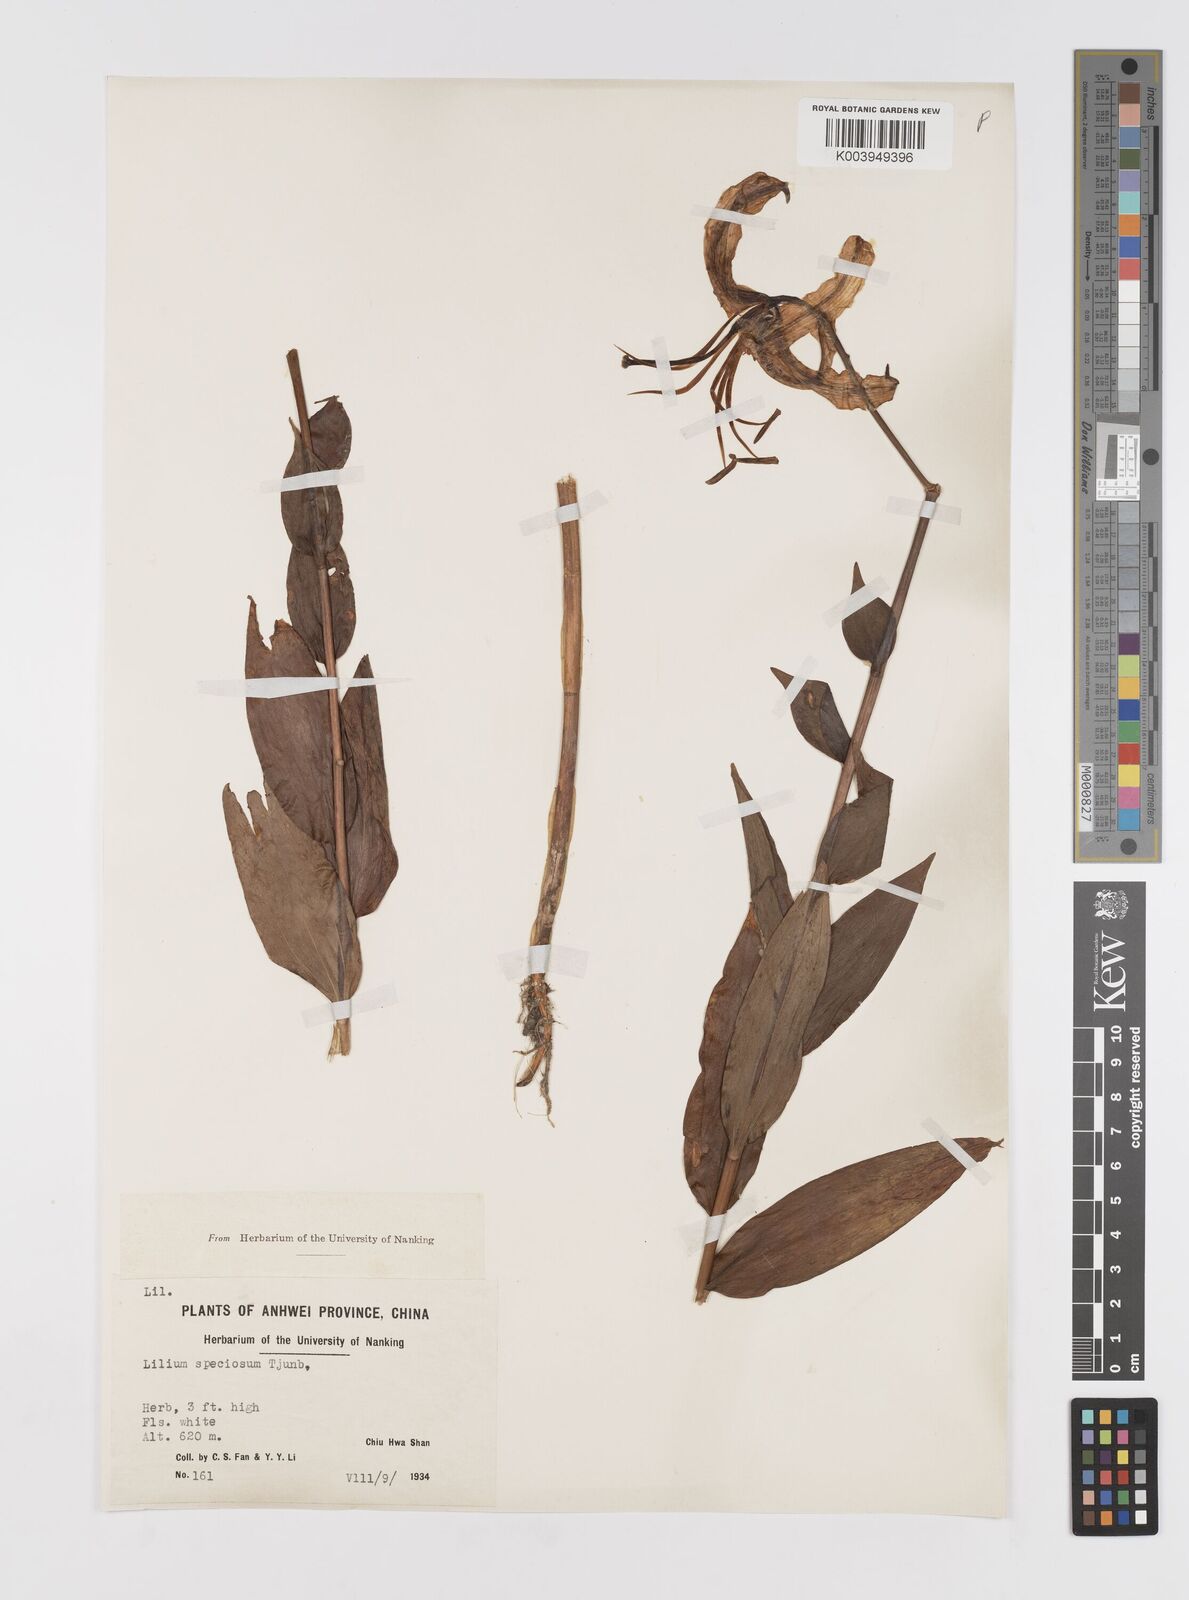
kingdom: Plantae
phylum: Tracheophyta
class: Liliopsida
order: Liliales
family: Liliaceae
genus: Lilium
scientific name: Lilium speciosum
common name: Japanese lily
